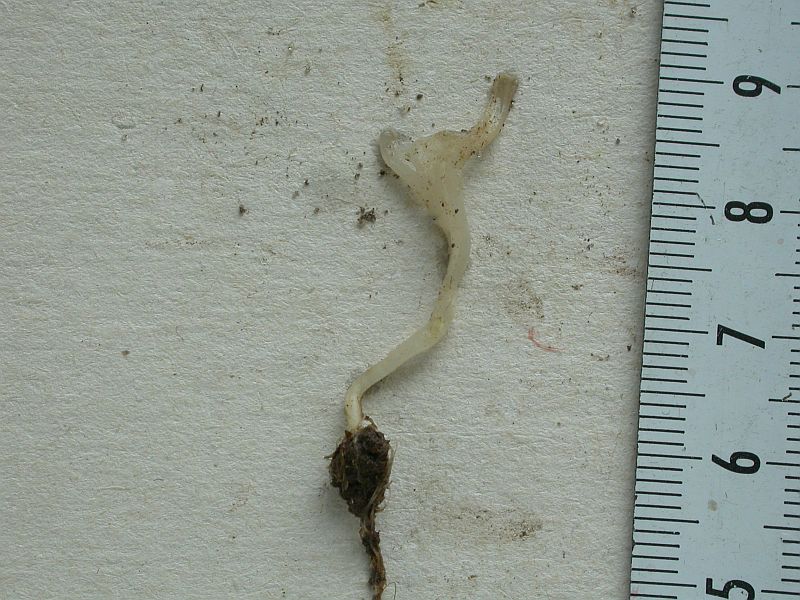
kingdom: Fungi
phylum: Basidiomycota
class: Agaricomycetes
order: Agaricales
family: Clavariaceae
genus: Clavaria
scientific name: Clavaria falcata
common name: hvid køllesvamp
